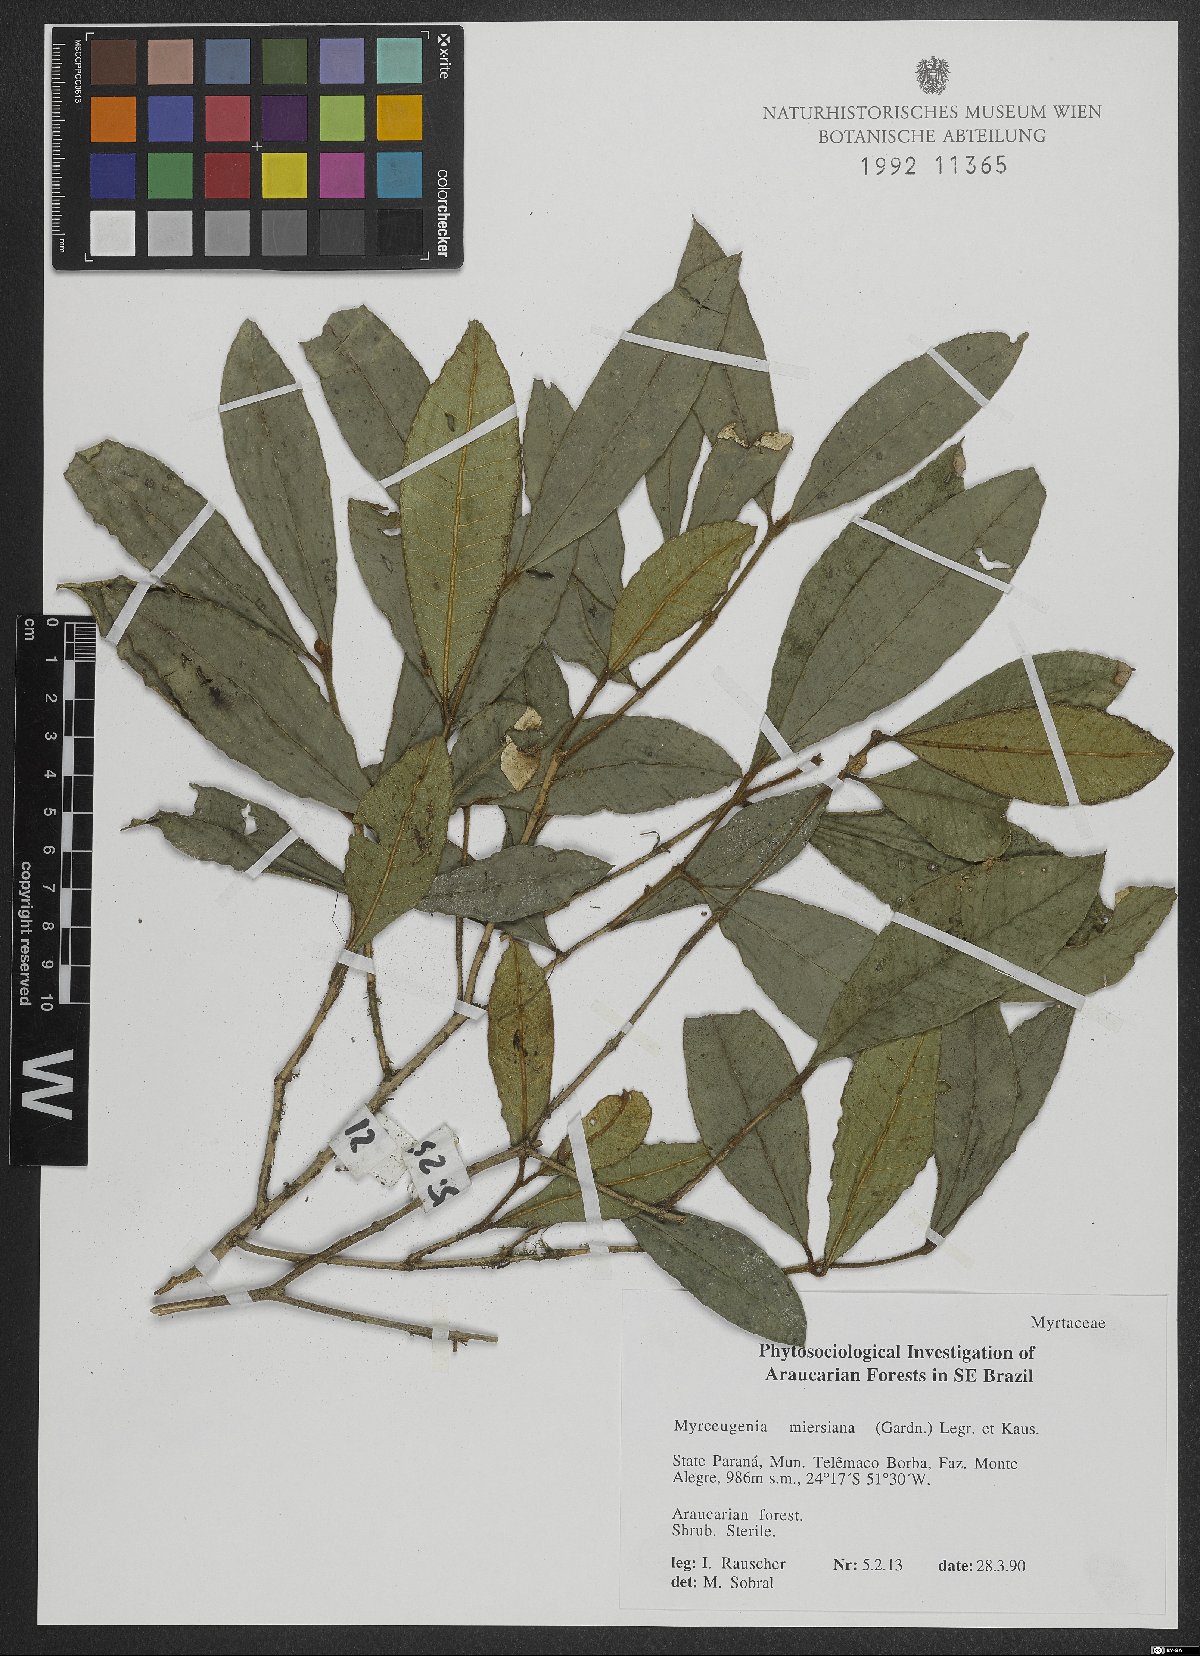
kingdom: Plantae
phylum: Tracheophyta
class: Magnoliopsida
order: Myrtales
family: Myrtaceae
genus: Myrceugenia
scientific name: Myrceugenia miersiana
